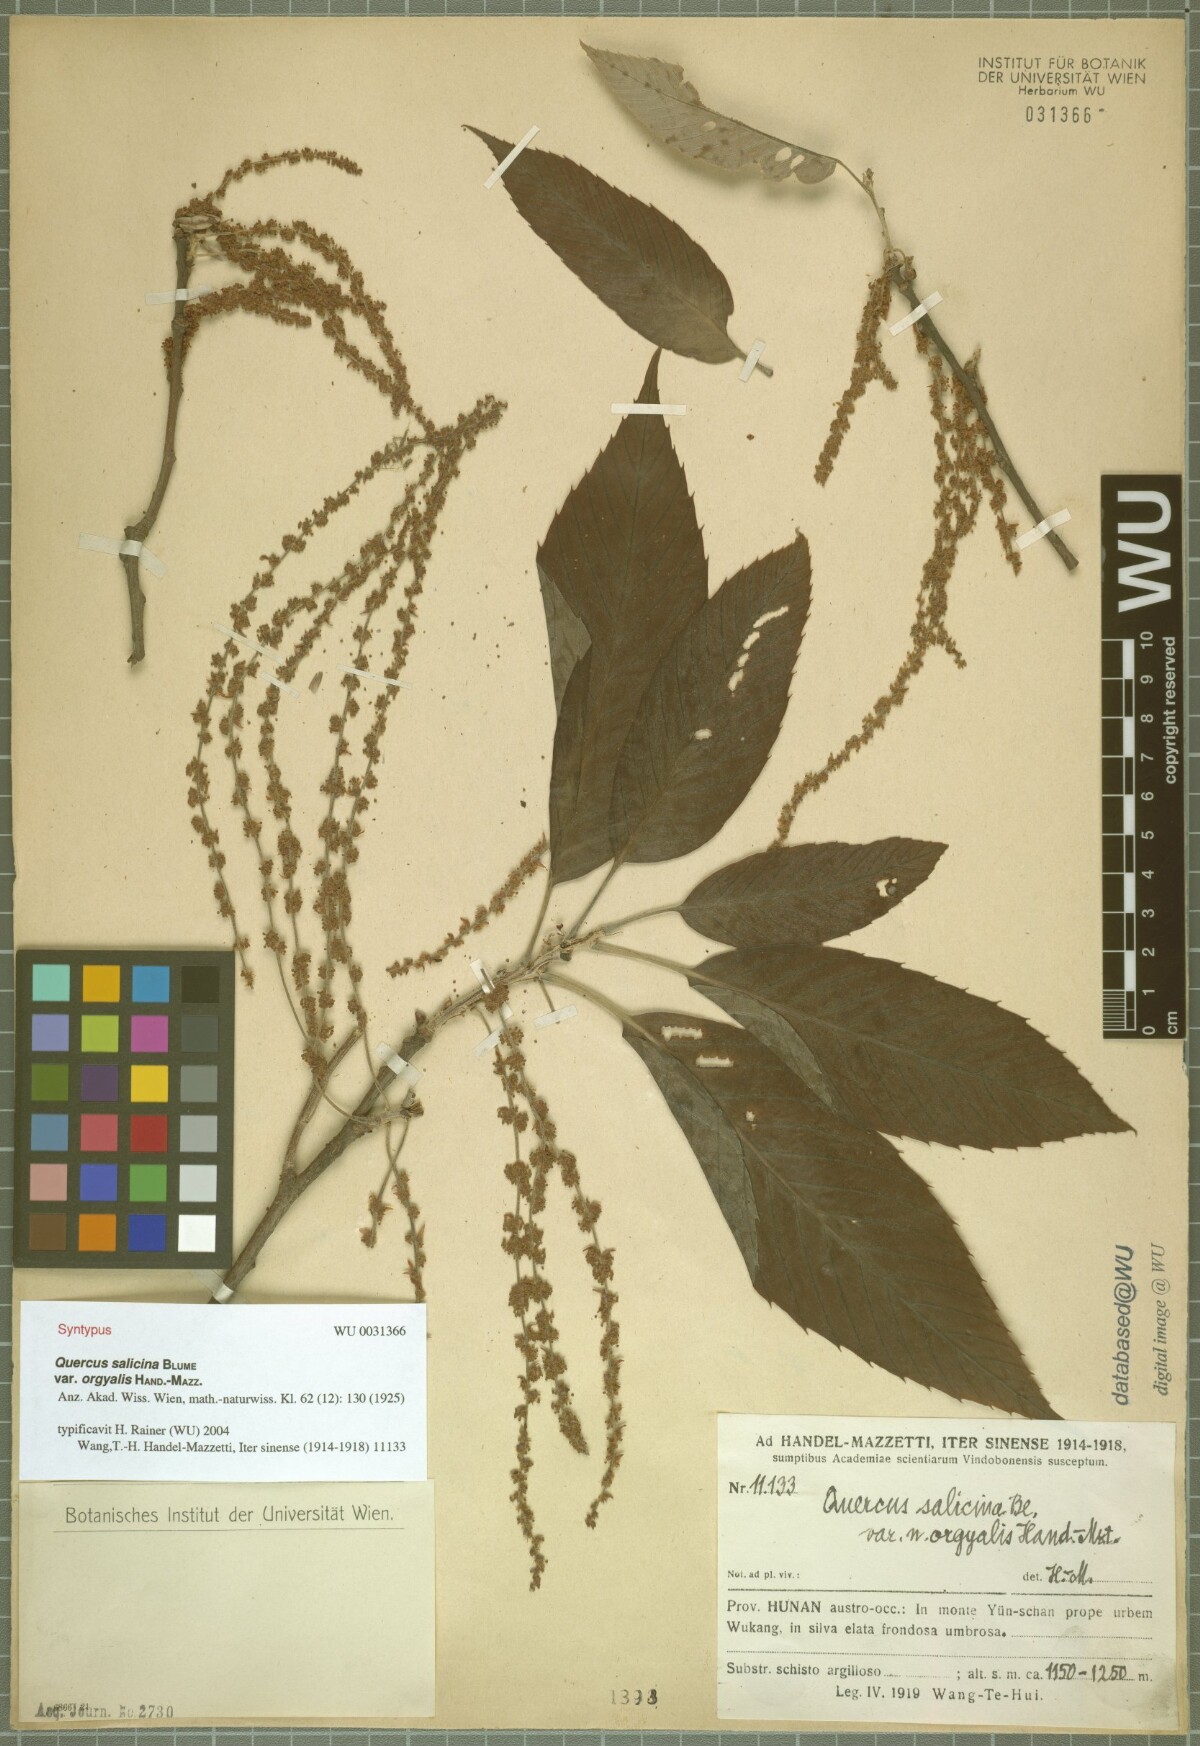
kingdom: Plantae
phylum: Tracheophyta
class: Magnoliopsida
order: Fagales
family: Fagaceae
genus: Quercus
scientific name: Quercus oxyodon
